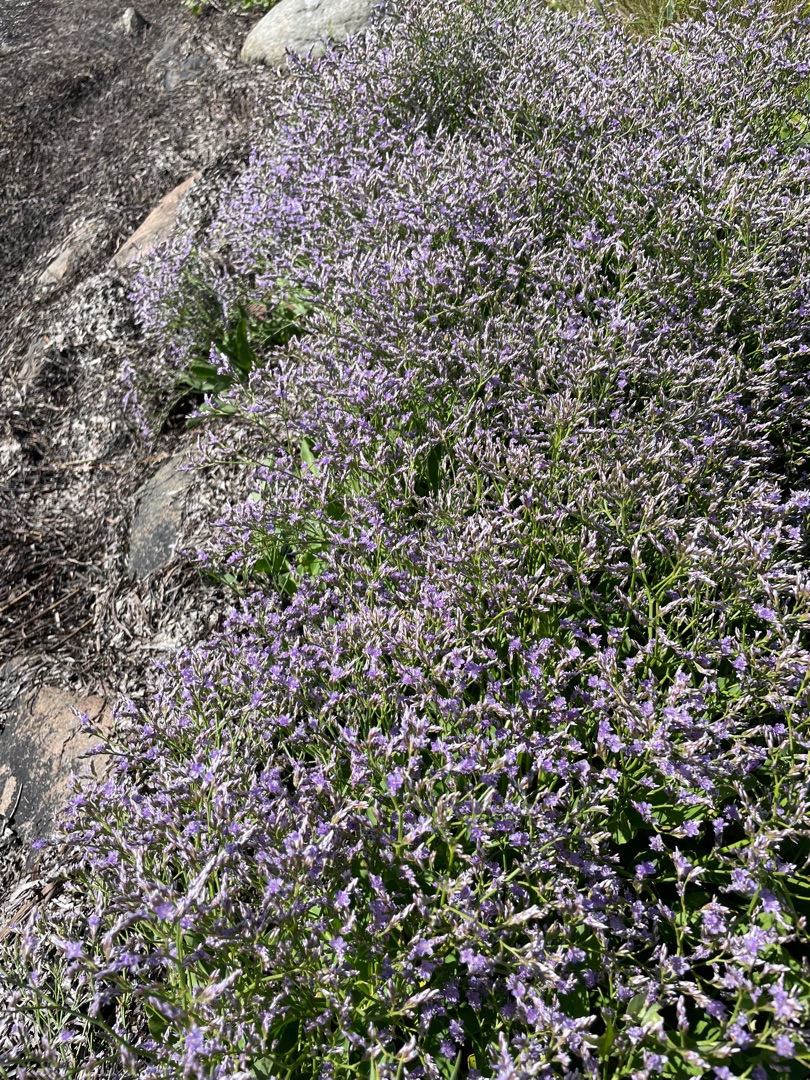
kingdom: Plantae
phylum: Tracheophyta
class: Magnoliopsida
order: Caryophyllales
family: Plumbaginaceae
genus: Limonium
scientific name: Limonium vulgare
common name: Tætblomstret hindebæger
